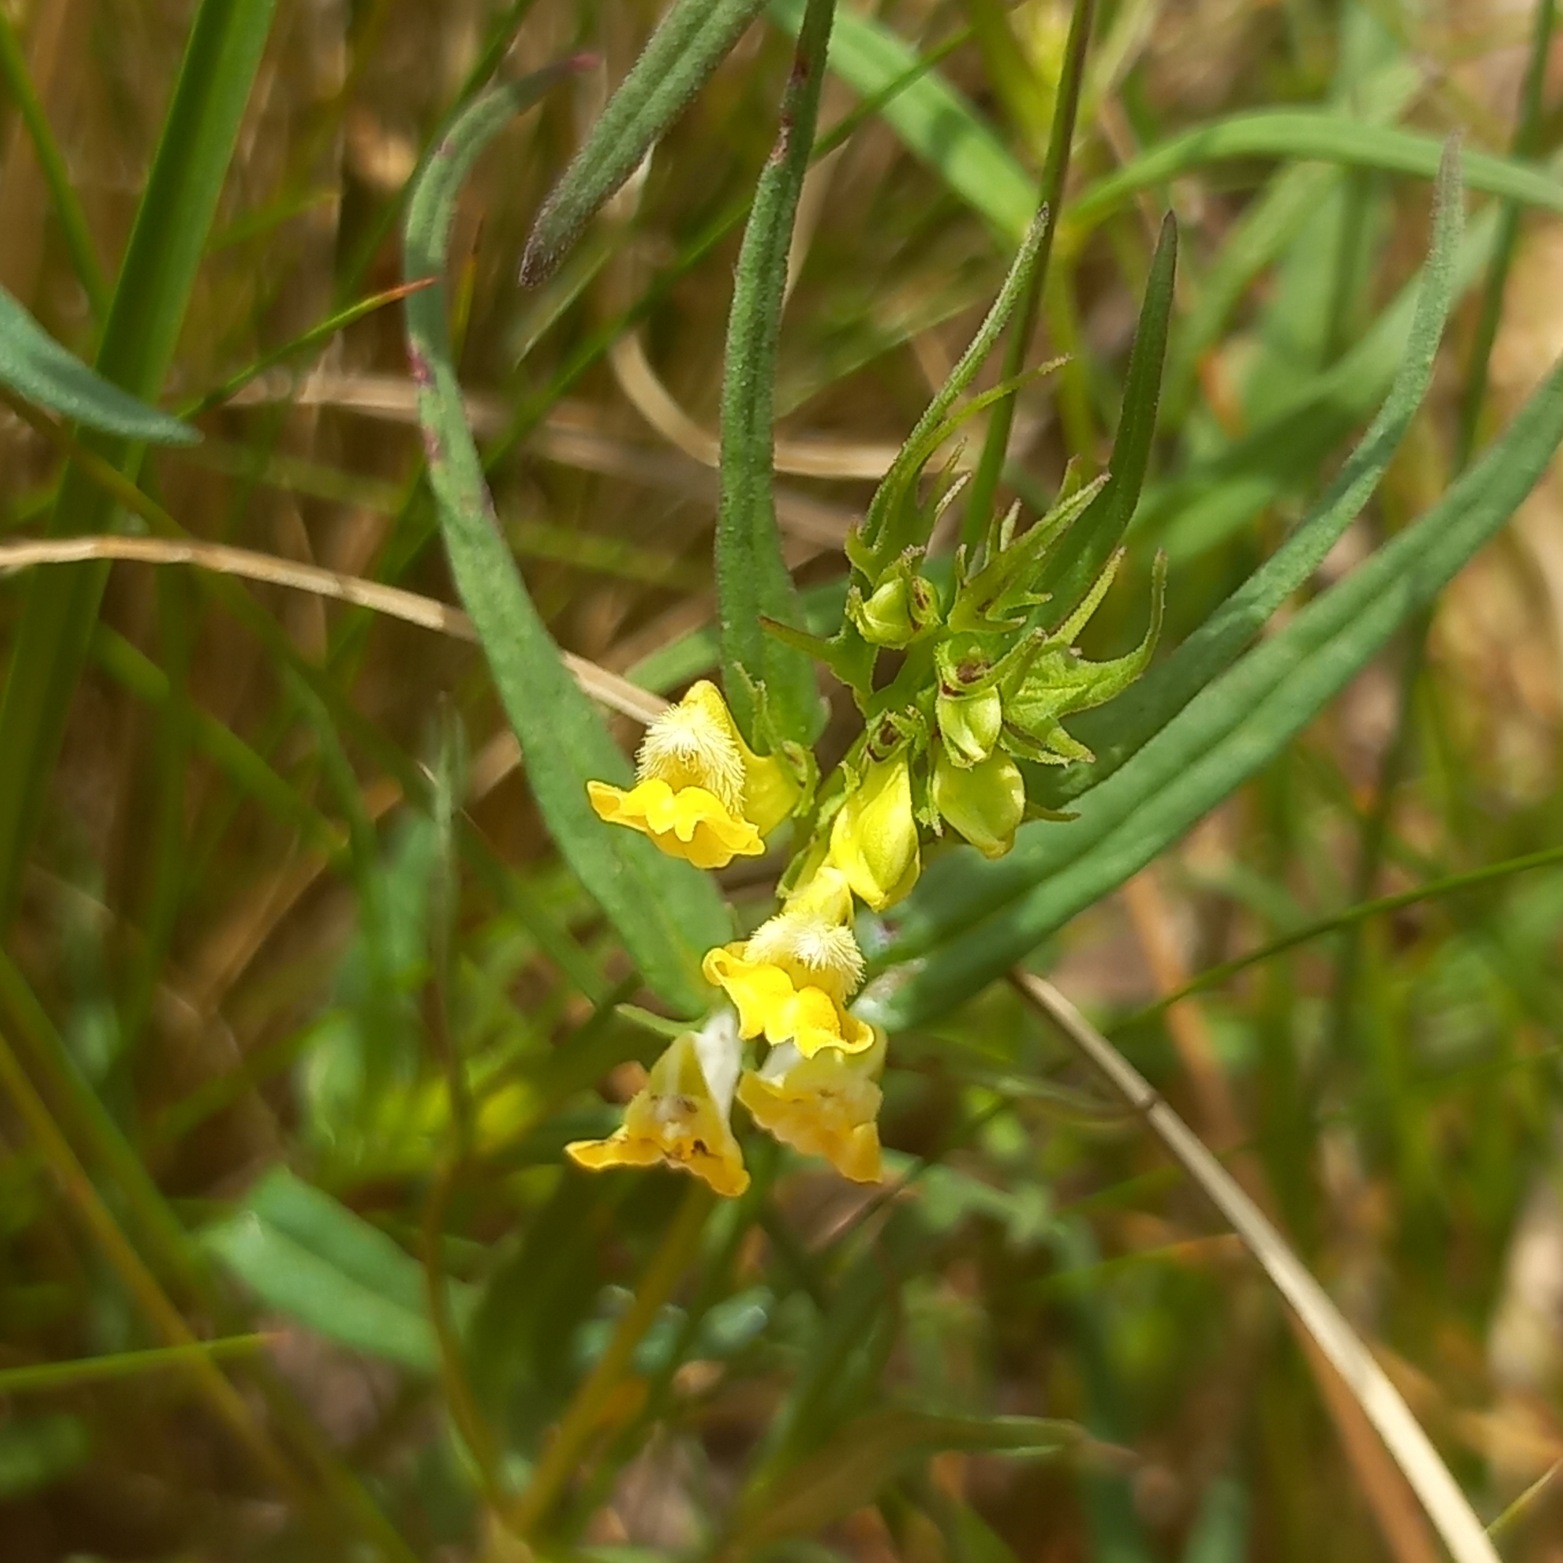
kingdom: Plantae
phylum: Tracheophyta
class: Magnoliopsida
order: Lamiales
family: Orobanchaceae
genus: Melampyrum
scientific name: Melampyrum pratense
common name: Almindelig kohvede
